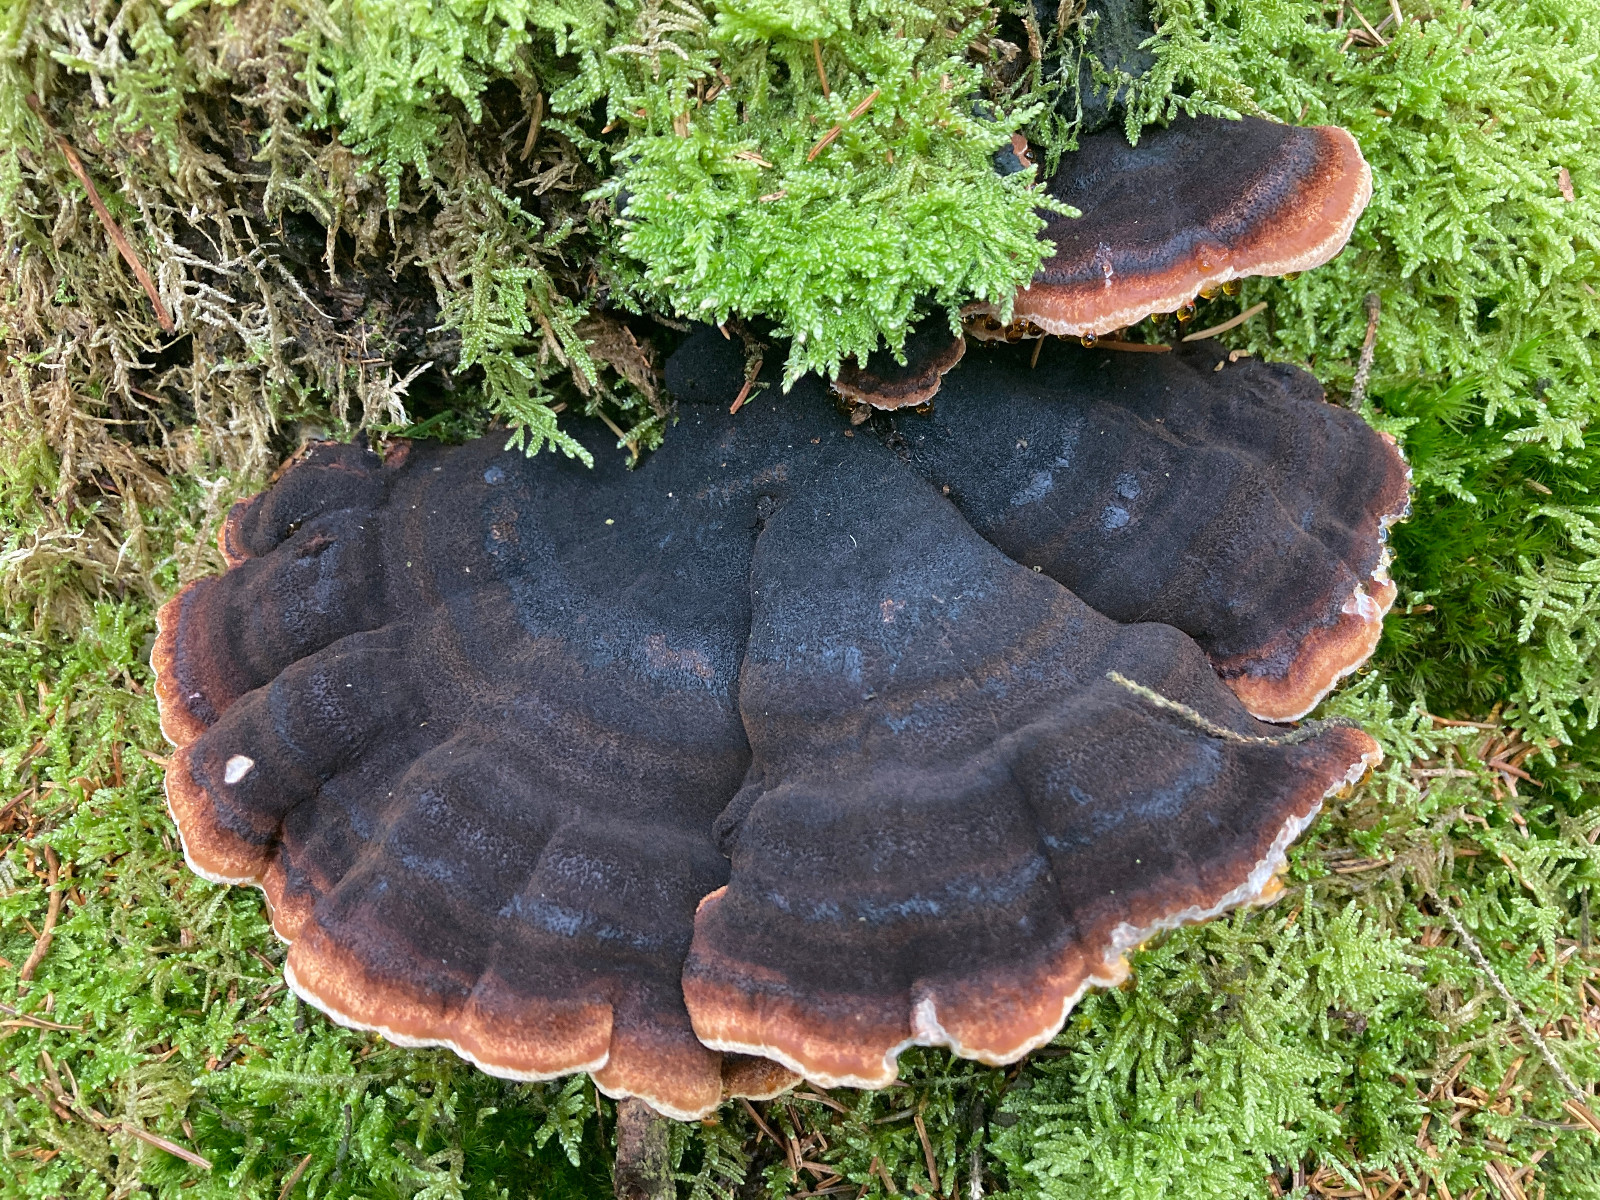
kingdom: Fungi
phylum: Basidiomycota
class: Agaricomycetes
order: Polyporales
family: Ischnodermataceae
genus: Ischnoderma
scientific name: Ischnoderma benzoinum
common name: gran-tjæreporesvamp
